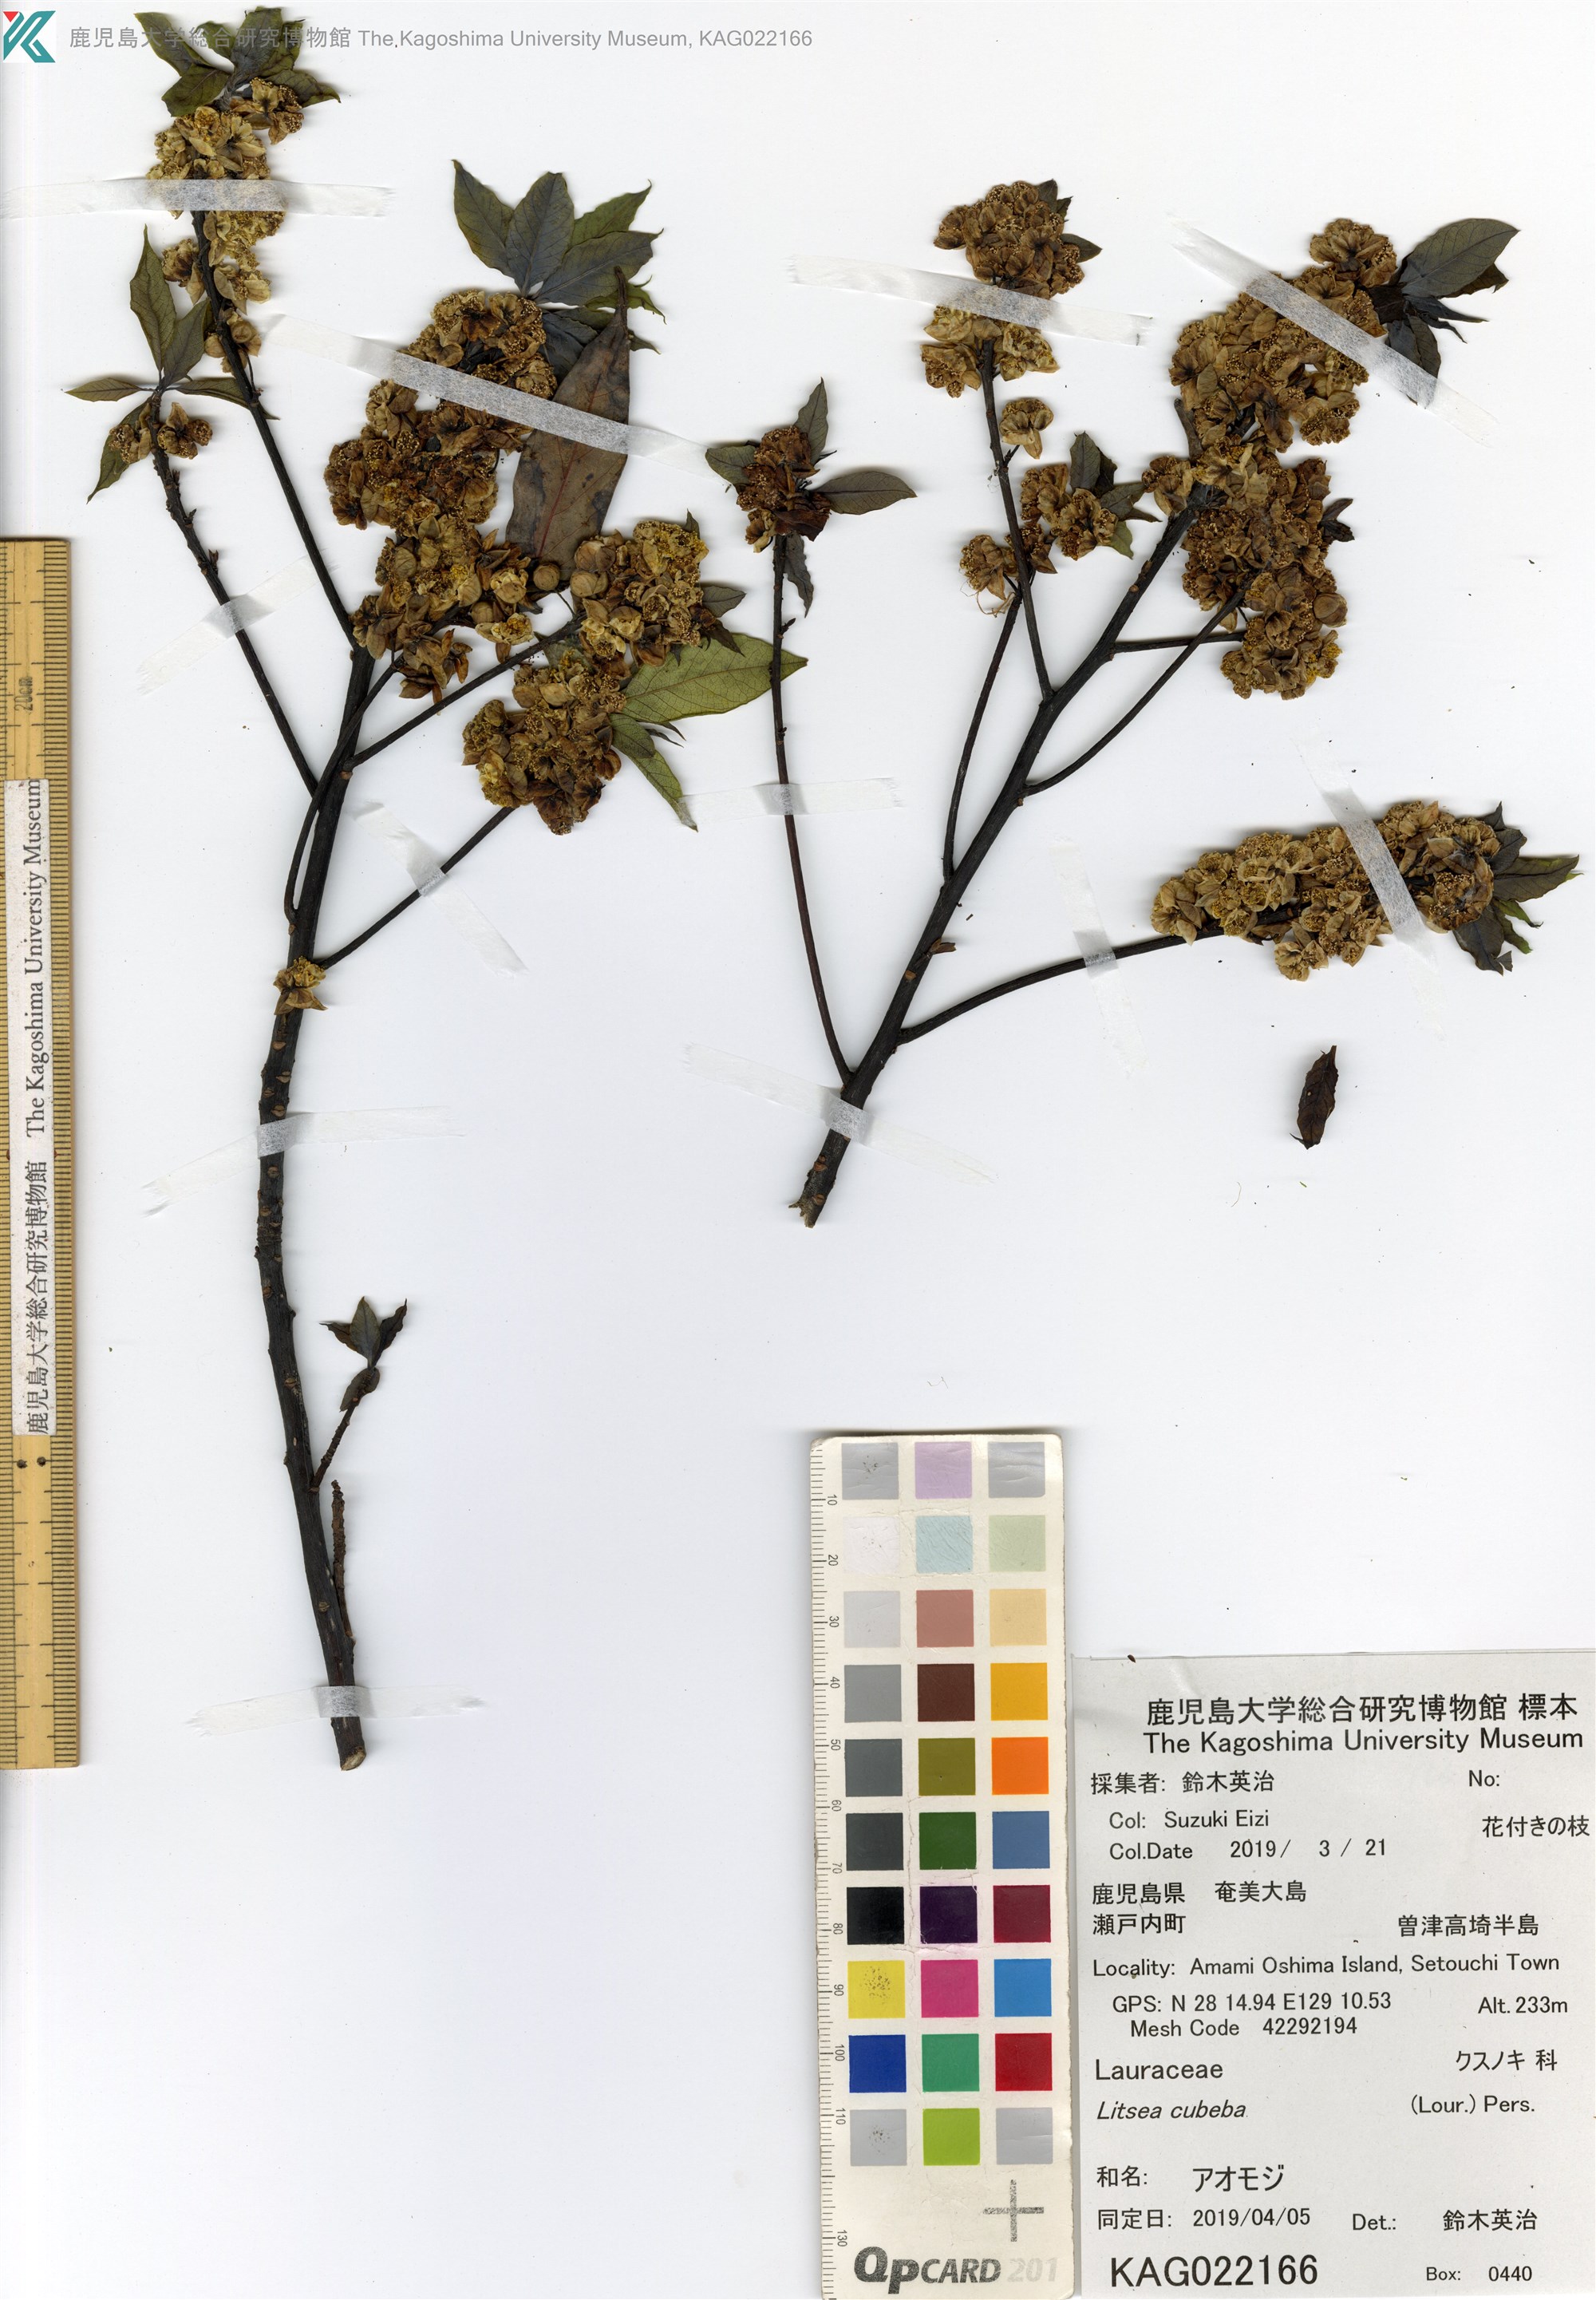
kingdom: Plantae
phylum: Tracheophyta
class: Magnoliopsida
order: Laurales
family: Lauraceae
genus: Litsea
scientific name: Litsea cubeba
